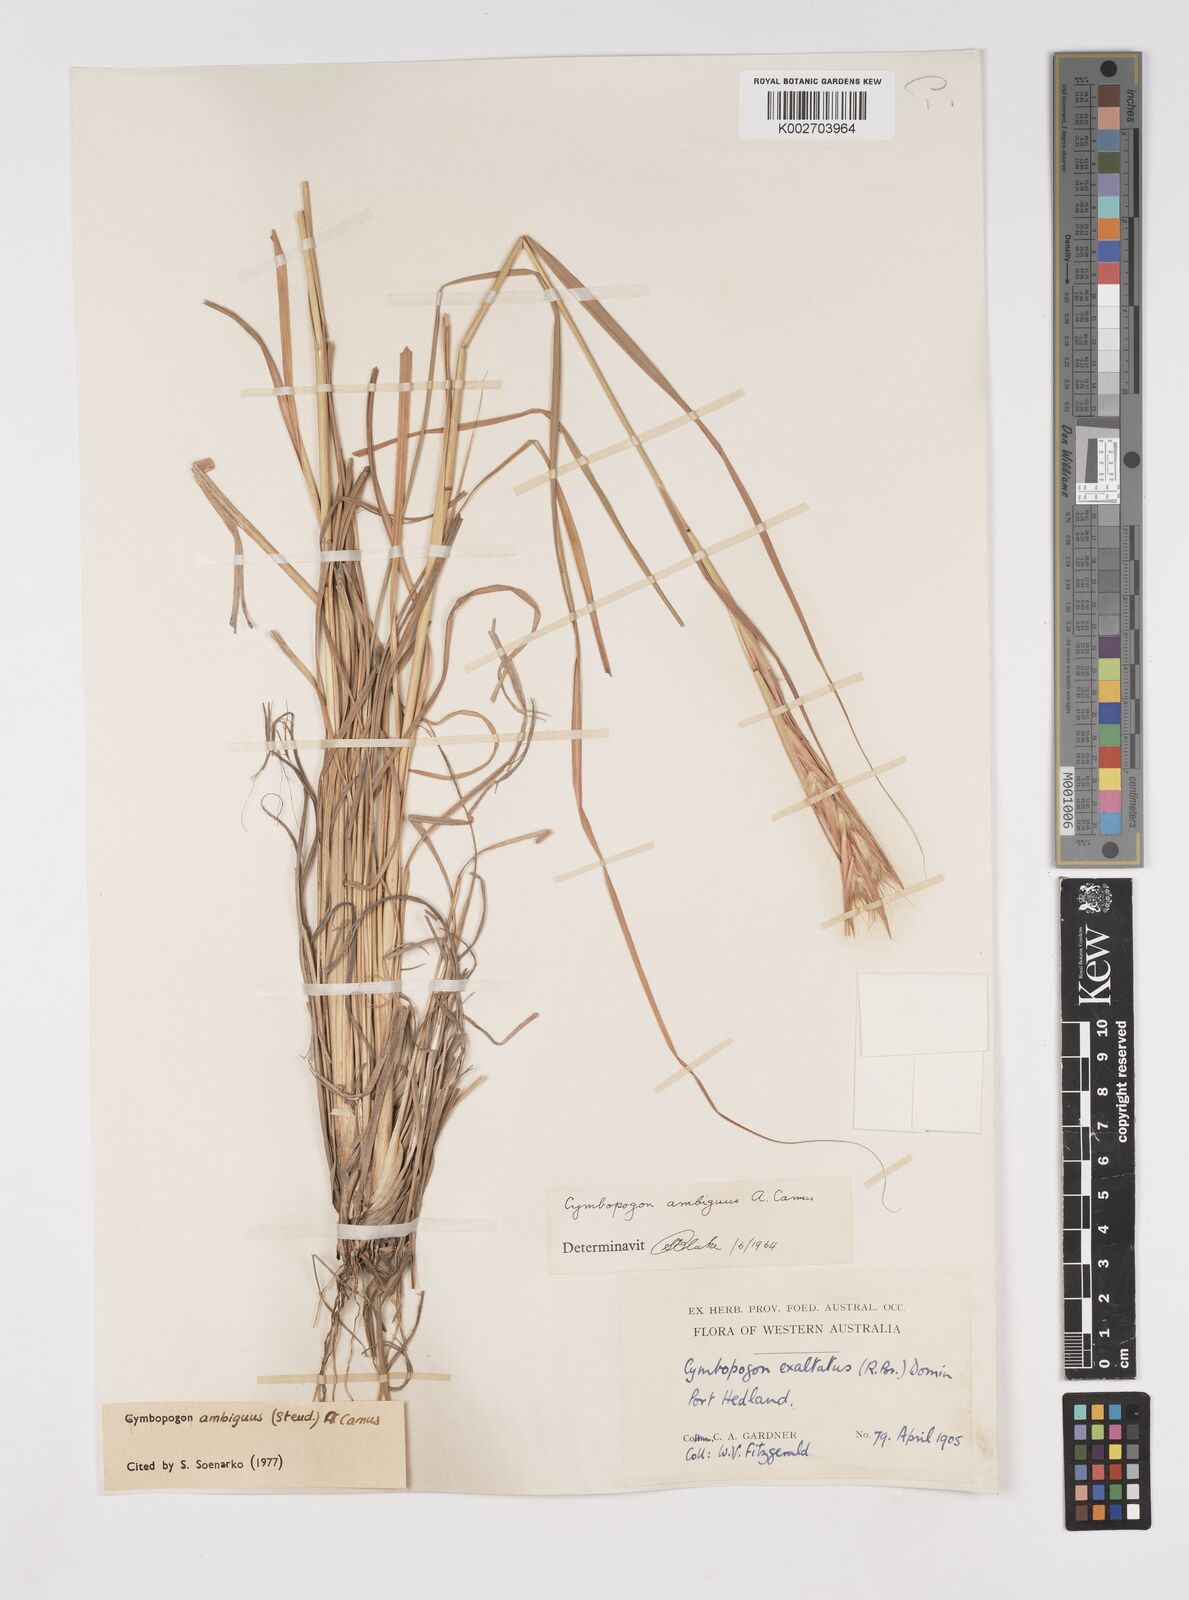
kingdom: Plantae
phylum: Tracheophyta
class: Liliopsida
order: Poales
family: Poaceae
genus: Cymbopogon
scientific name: Cymbopogon ambiguus
